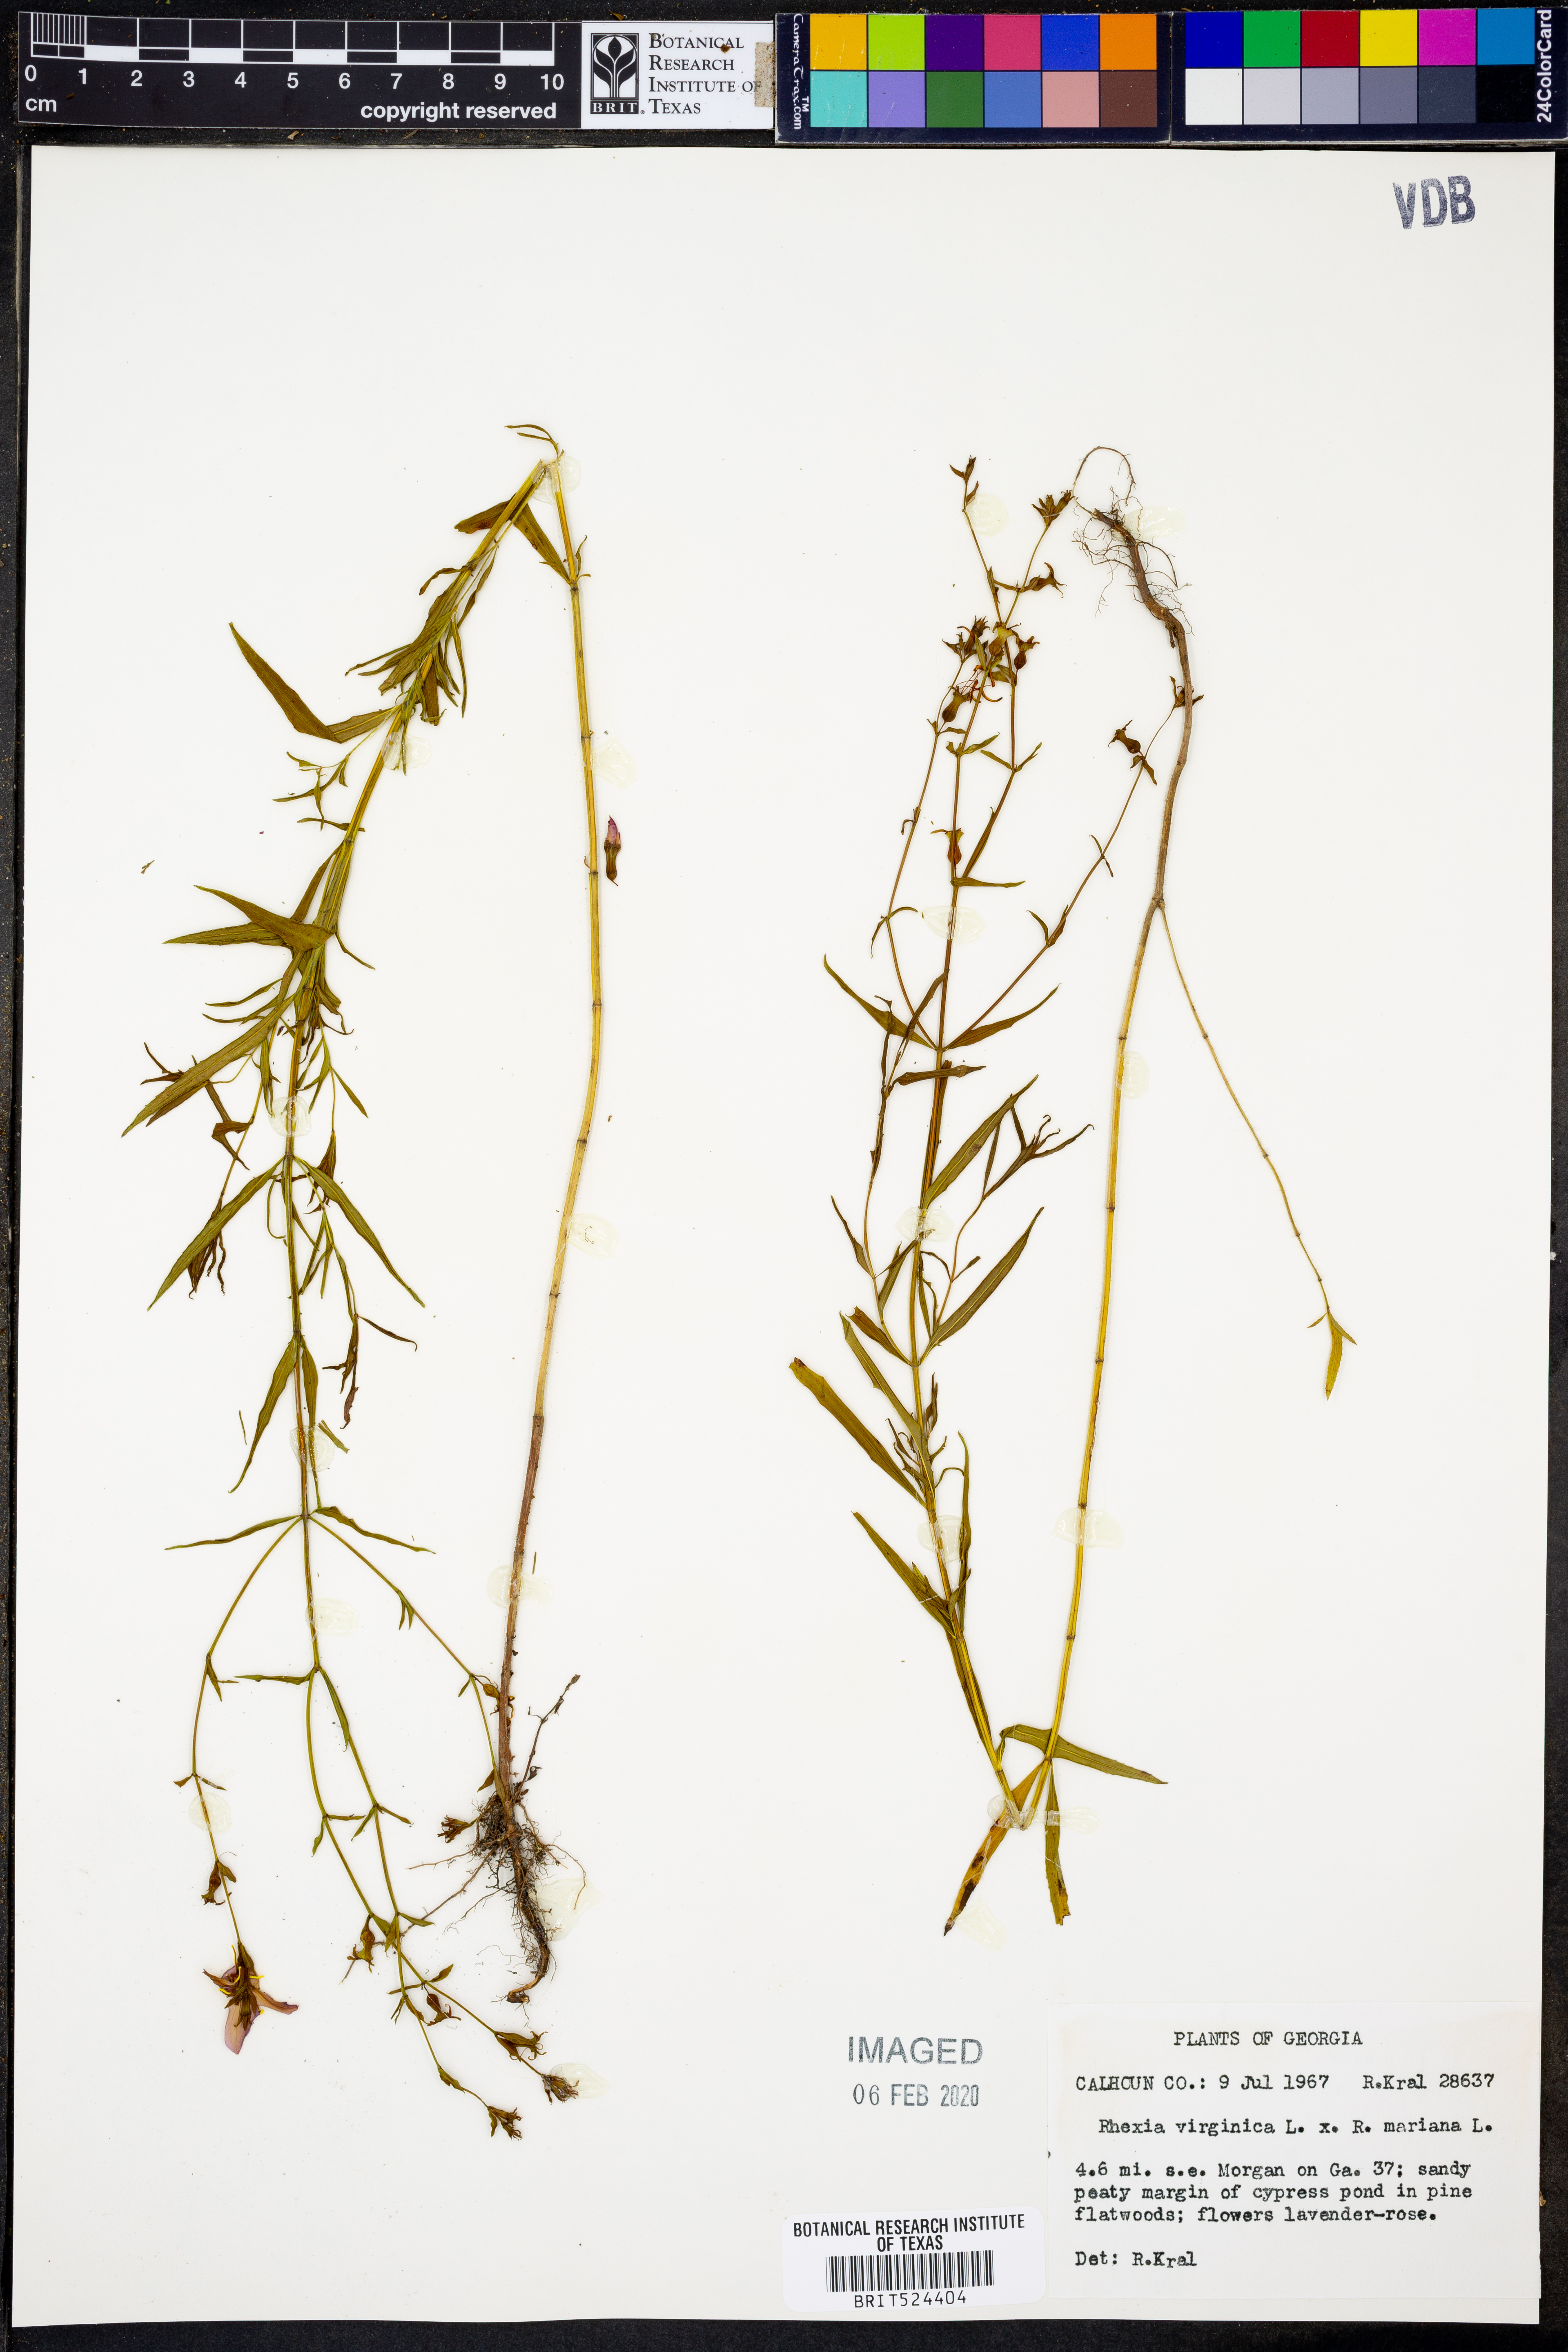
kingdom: Plantae
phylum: Tracheophyta
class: Magnoliopsida
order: Myrtales
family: Melastomataceae
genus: Rhexia
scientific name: Rhexia virginica
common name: Common meadow beauty
